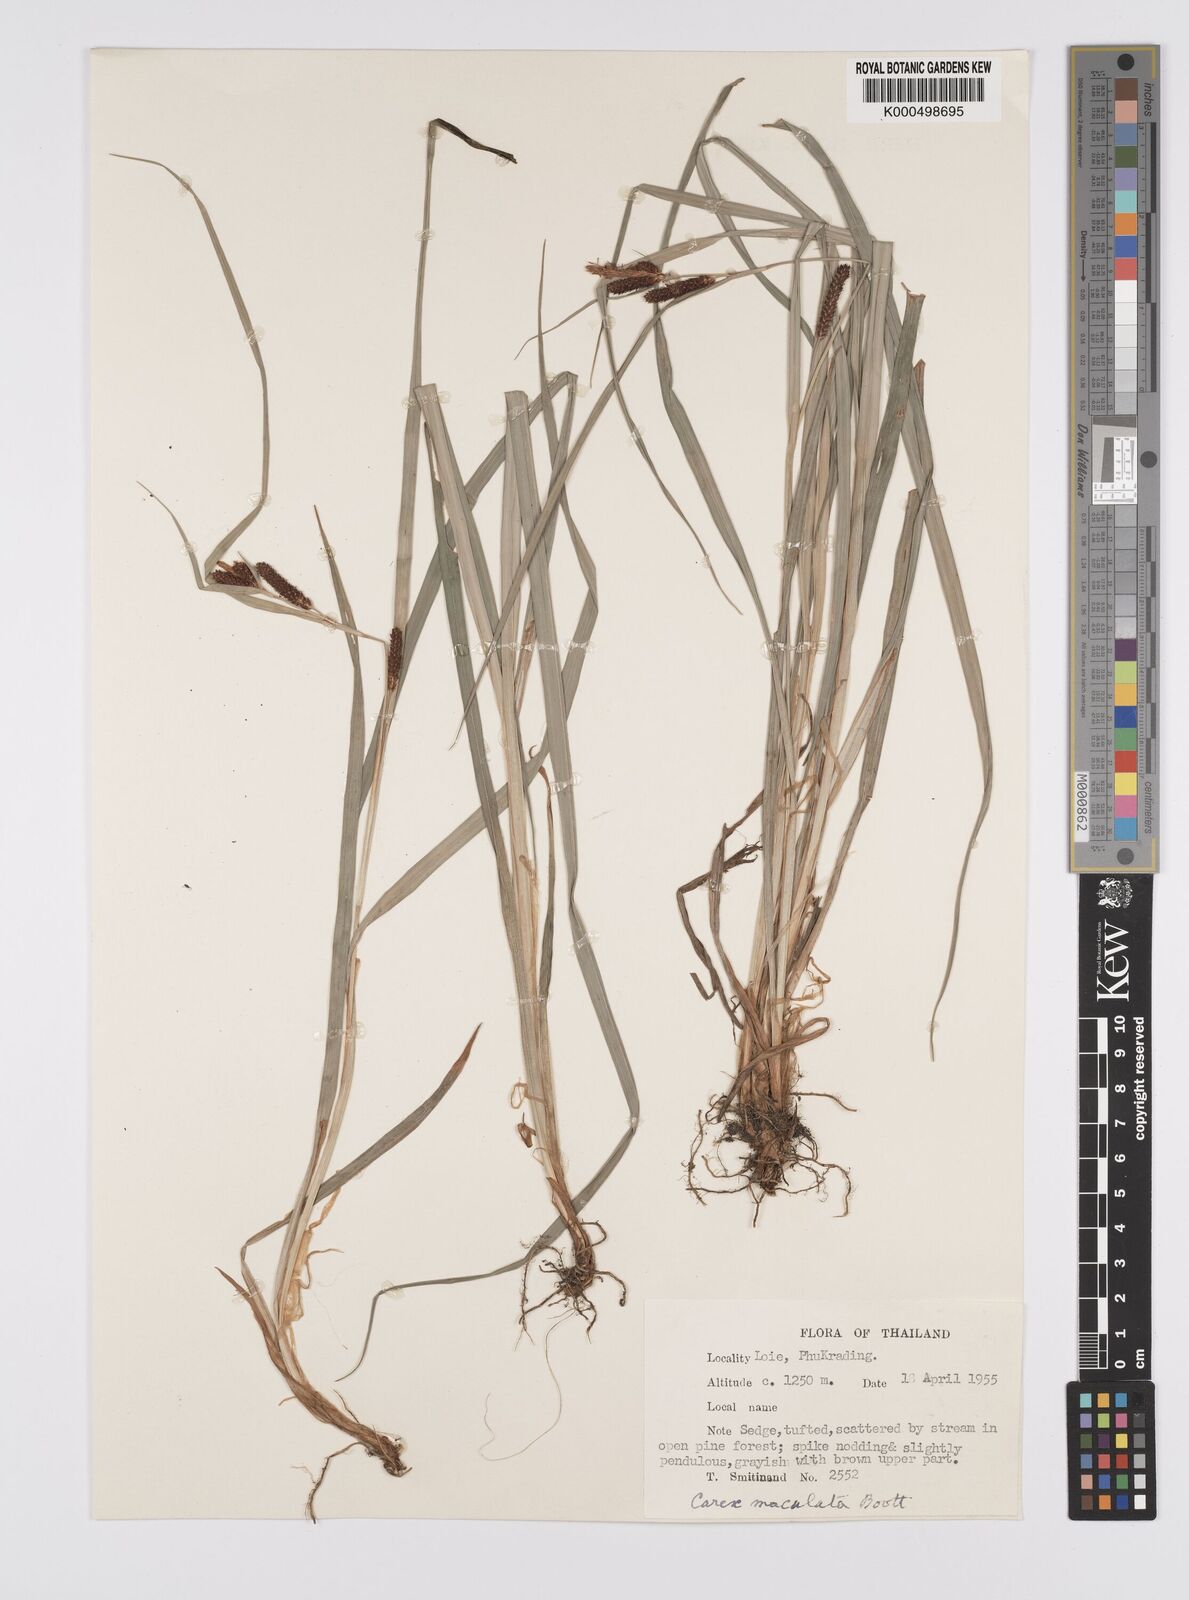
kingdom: Plantae
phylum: Tracheophyta
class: Liliopsida
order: Poales
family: Cyperaceae
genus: Carex
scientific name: Carex maculata
